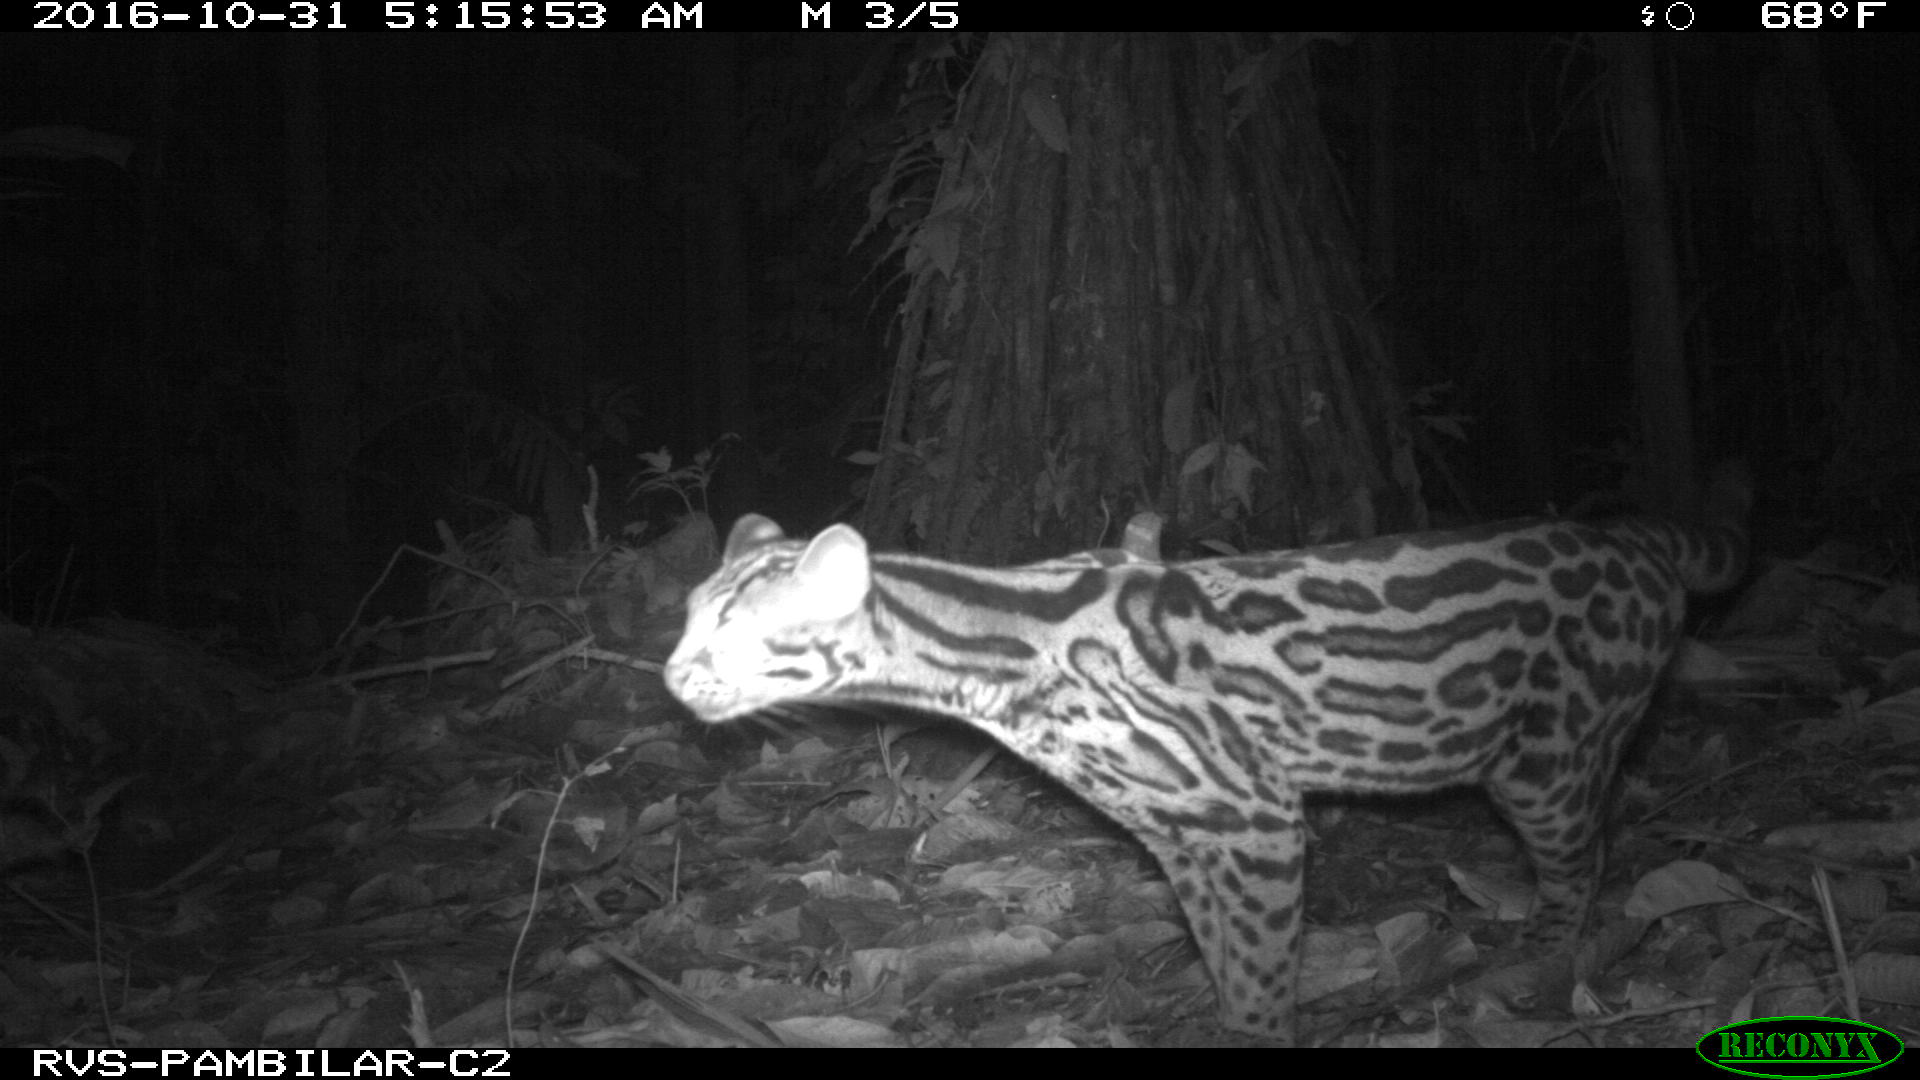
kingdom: Animalia
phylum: Chordata
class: Mammalia
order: Carnivora
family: Felidae
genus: Leopardus
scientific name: Leopardus pardalis
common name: Ocelot
